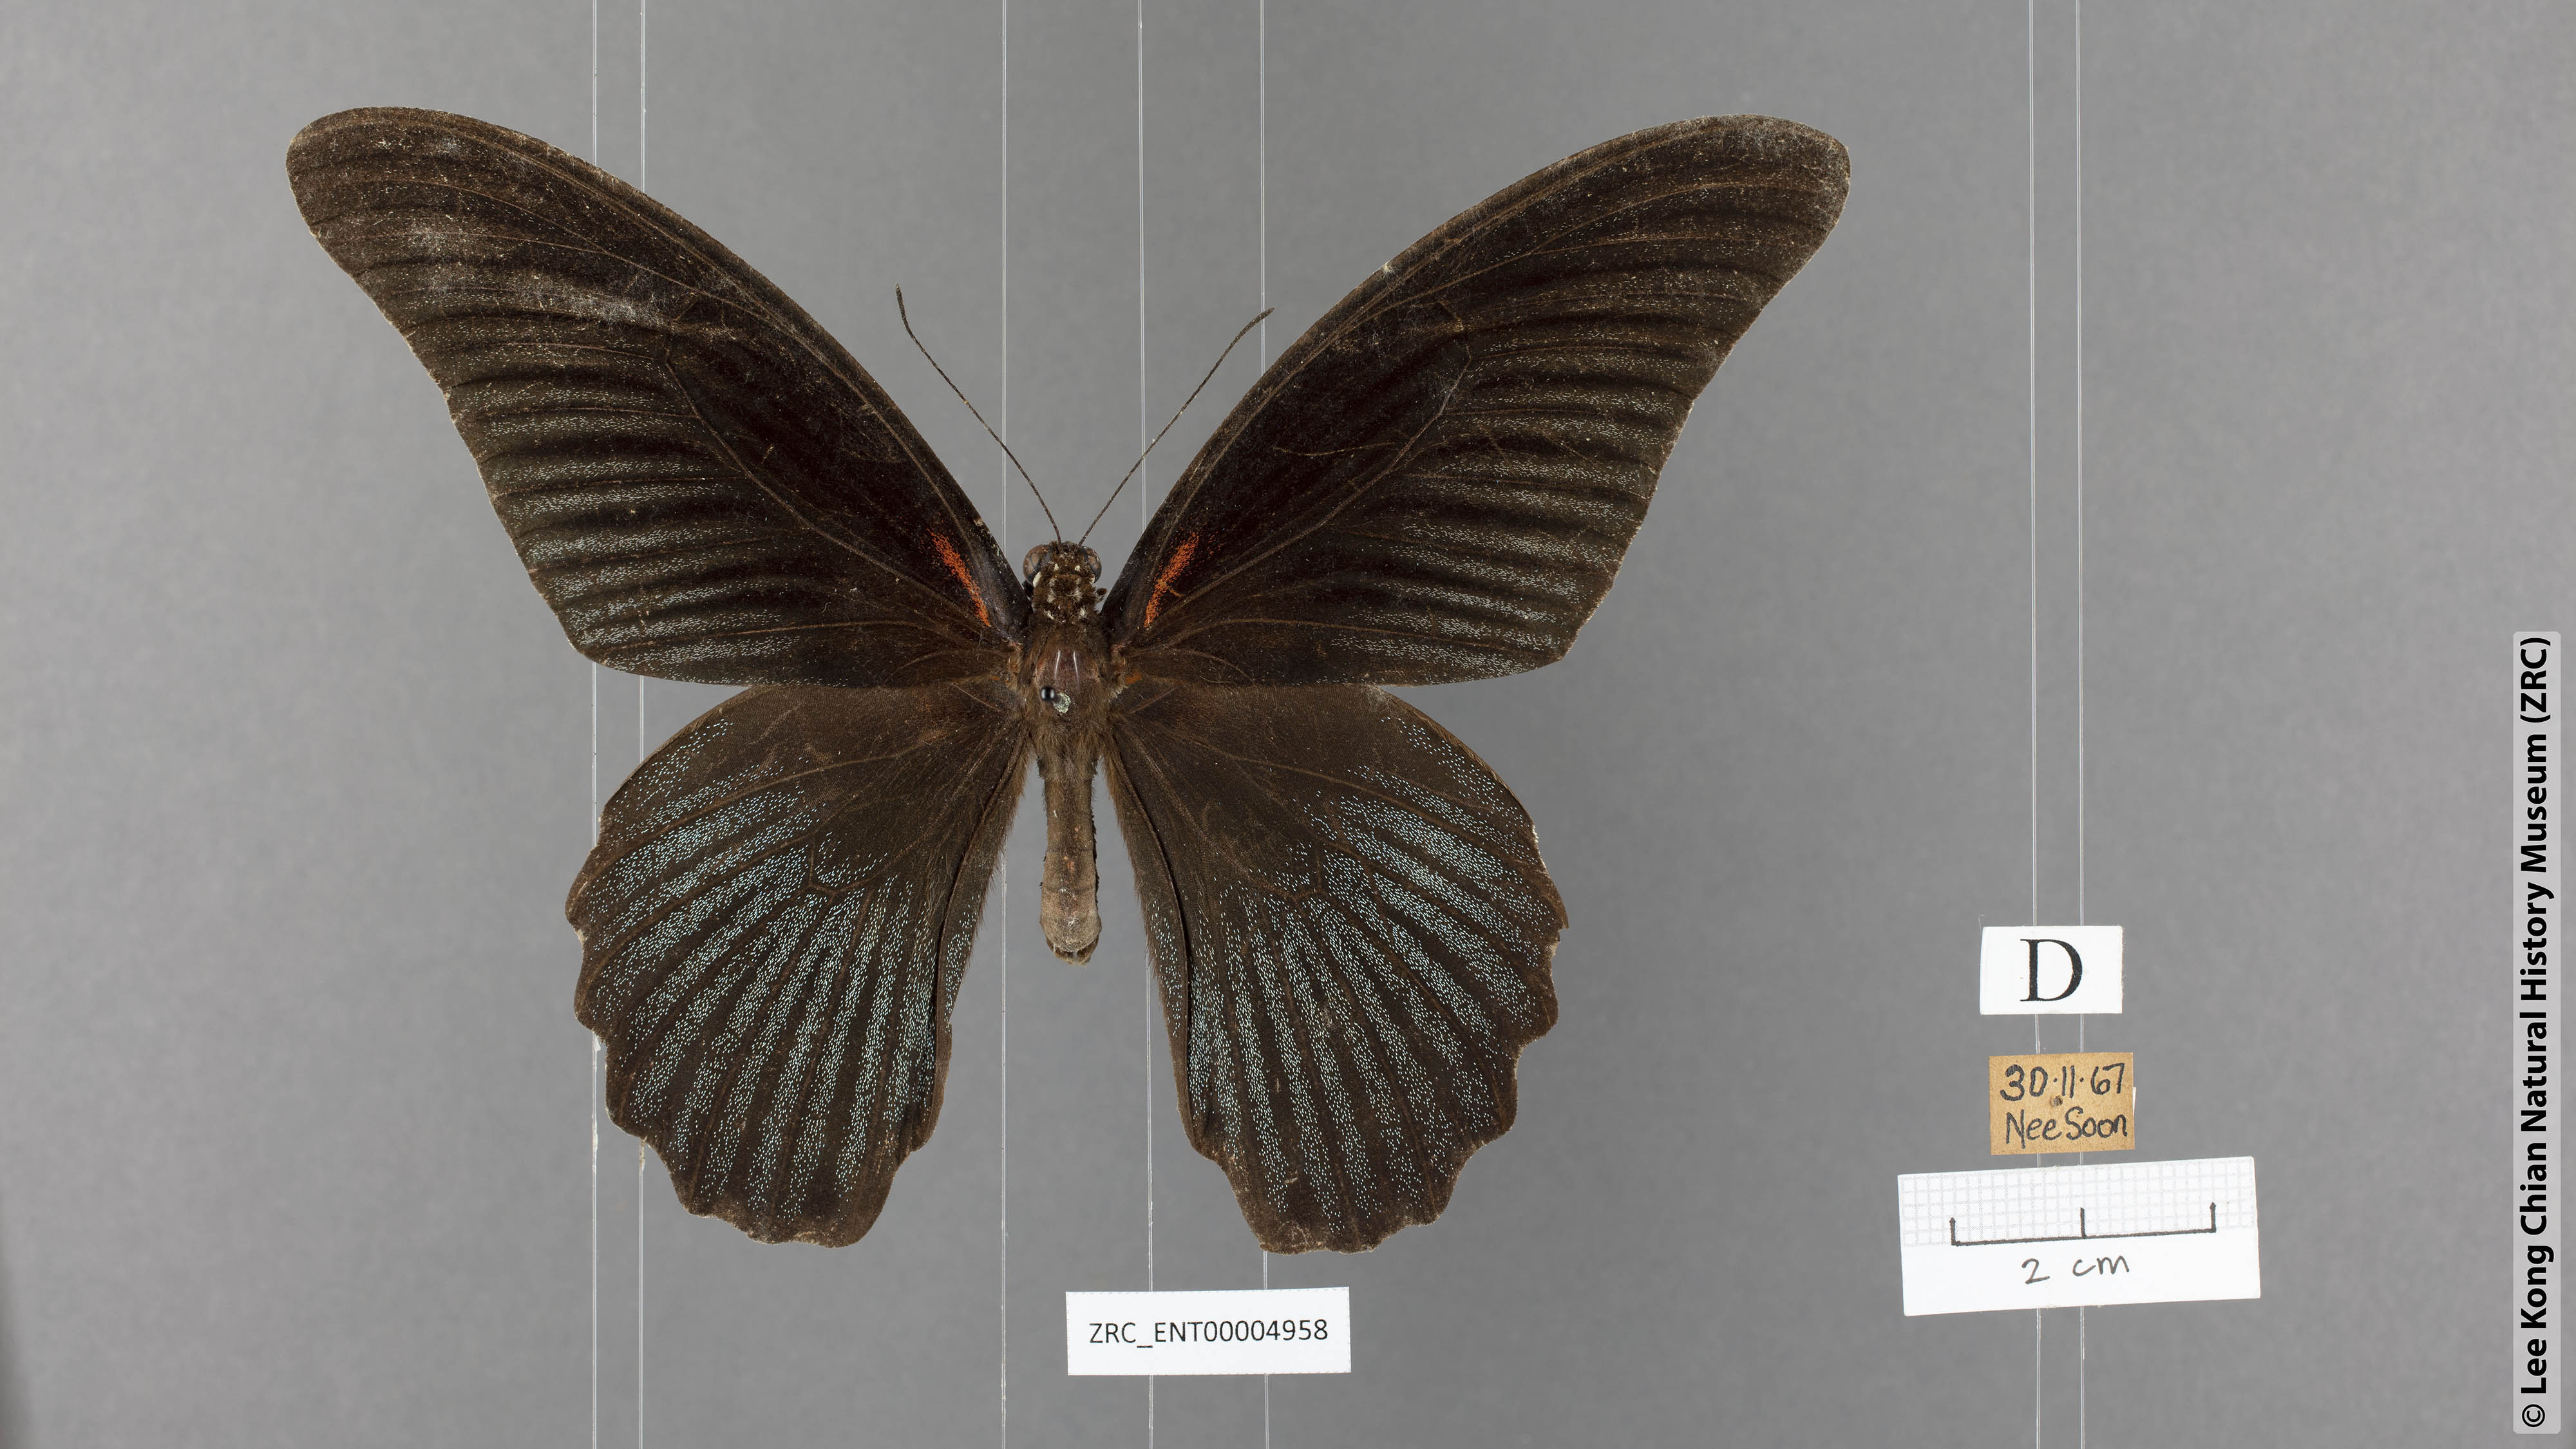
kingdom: Animalia
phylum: Arthropoda
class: Insecta
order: Lepidoptera
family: Papilionidae
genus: Papilio
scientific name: Papilio memnon
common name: Great mormon
